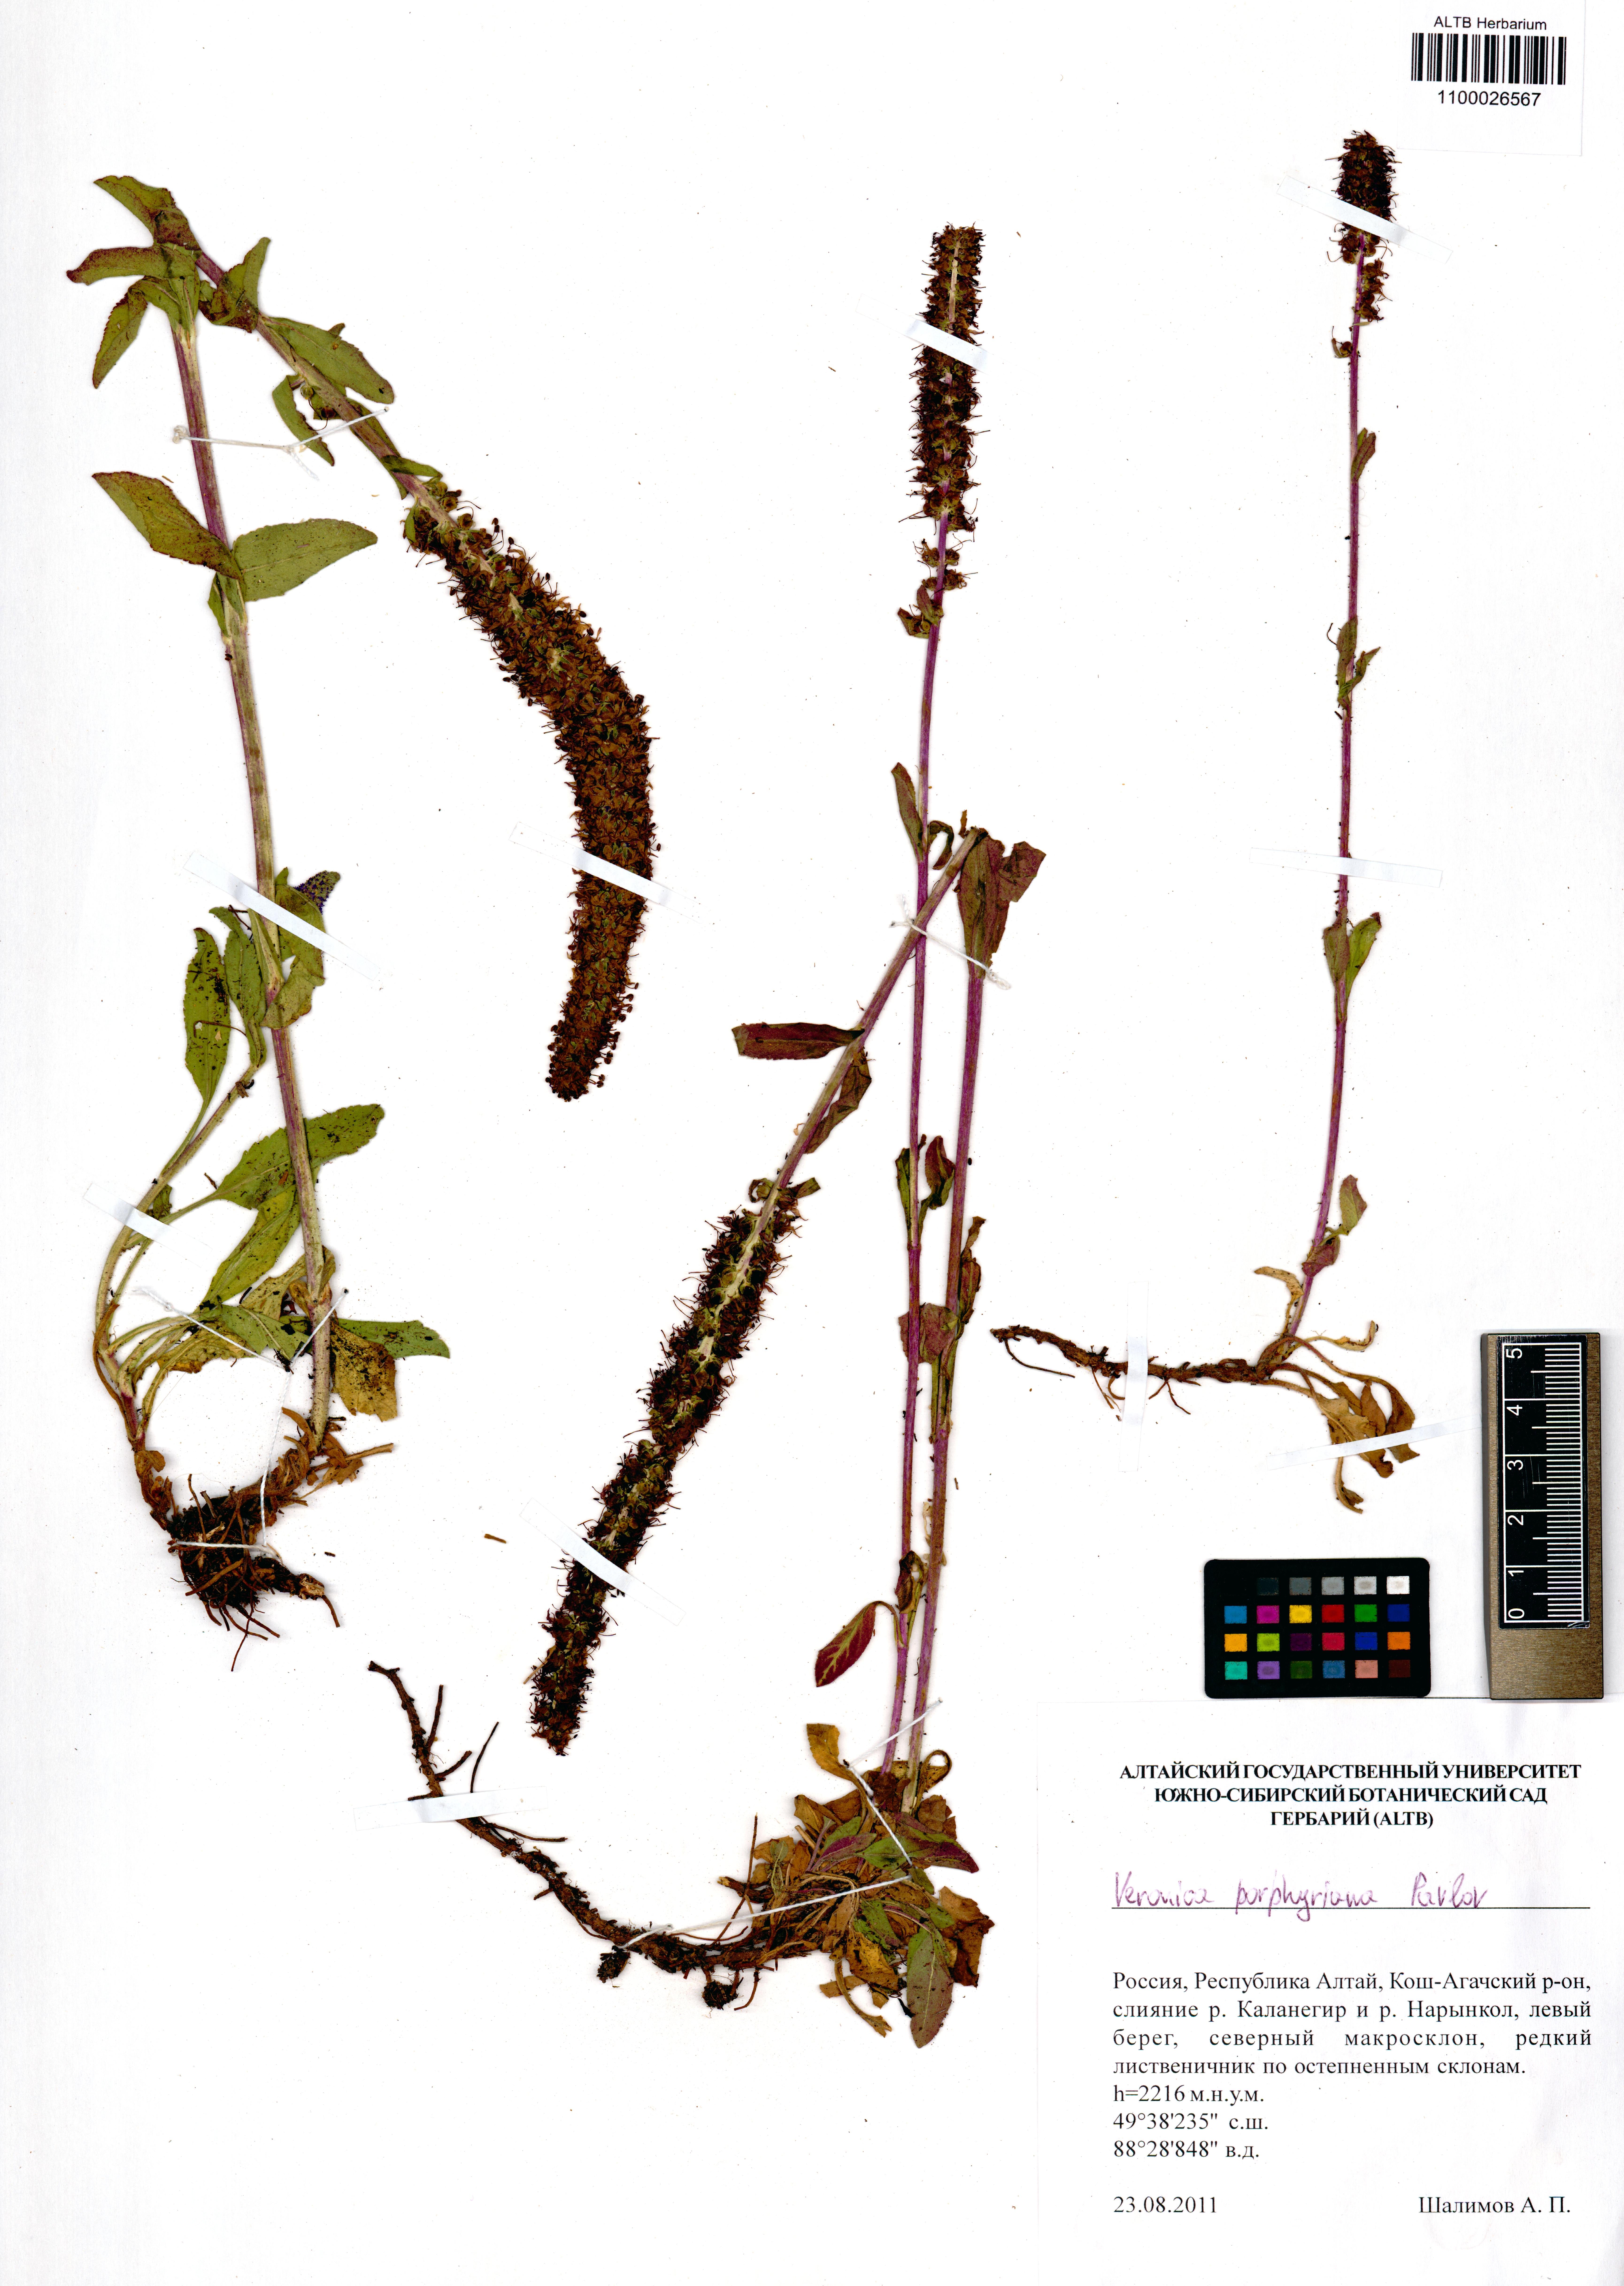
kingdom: Plantae
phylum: Tracheophyta
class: Magnoliopsida
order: Lamiales
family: Plantaginaceae
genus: Veronica
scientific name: Veronica porphyriana
